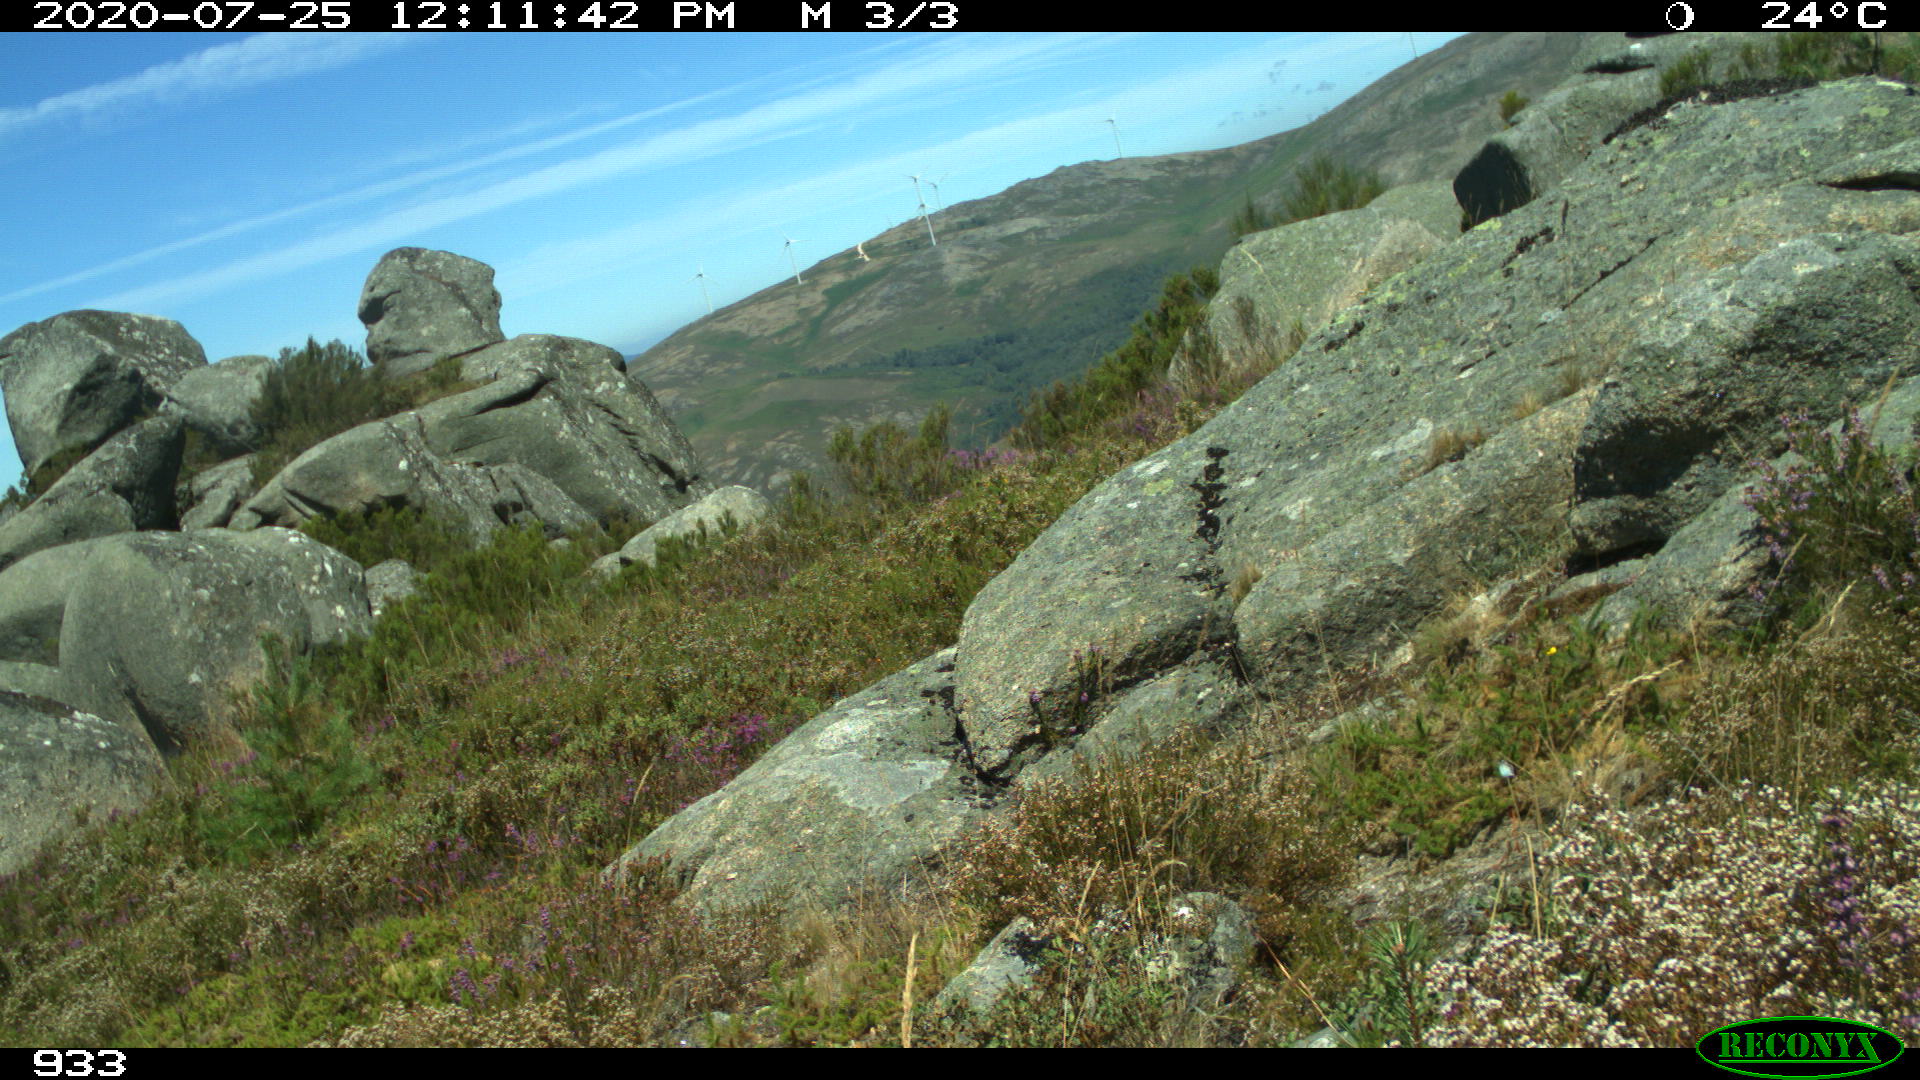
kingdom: Animalia
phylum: Chordata
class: Mammalia
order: Perissodactyla
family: Equidae
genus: Equus
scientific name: Equus caballus
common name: Horse
